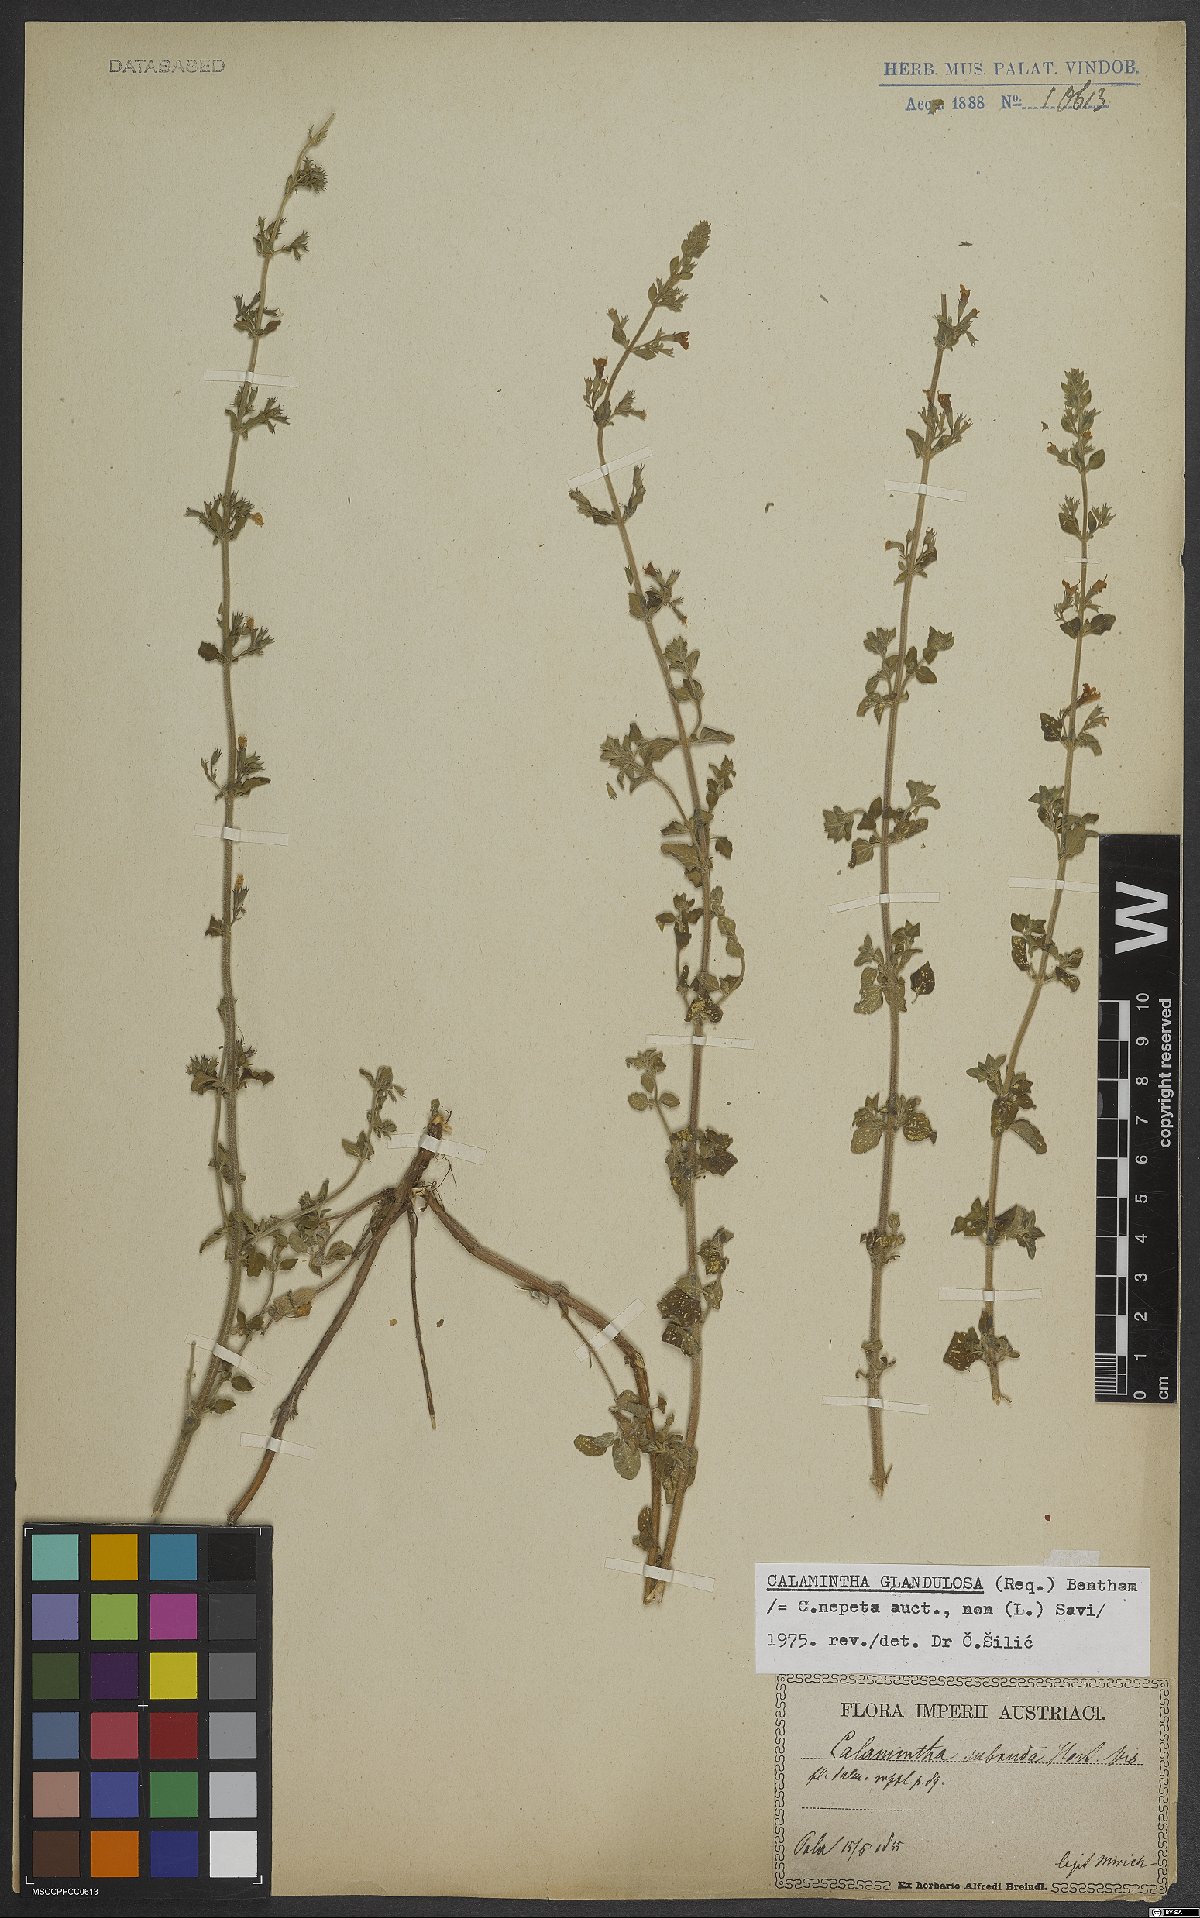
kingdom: Plantae
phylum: Tracheophyta
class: Magnoliopsida
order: Lamiales
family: Lamiaceae
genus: Clinopodium
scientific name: Clinopodium nepeta
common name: Lesser calamint
